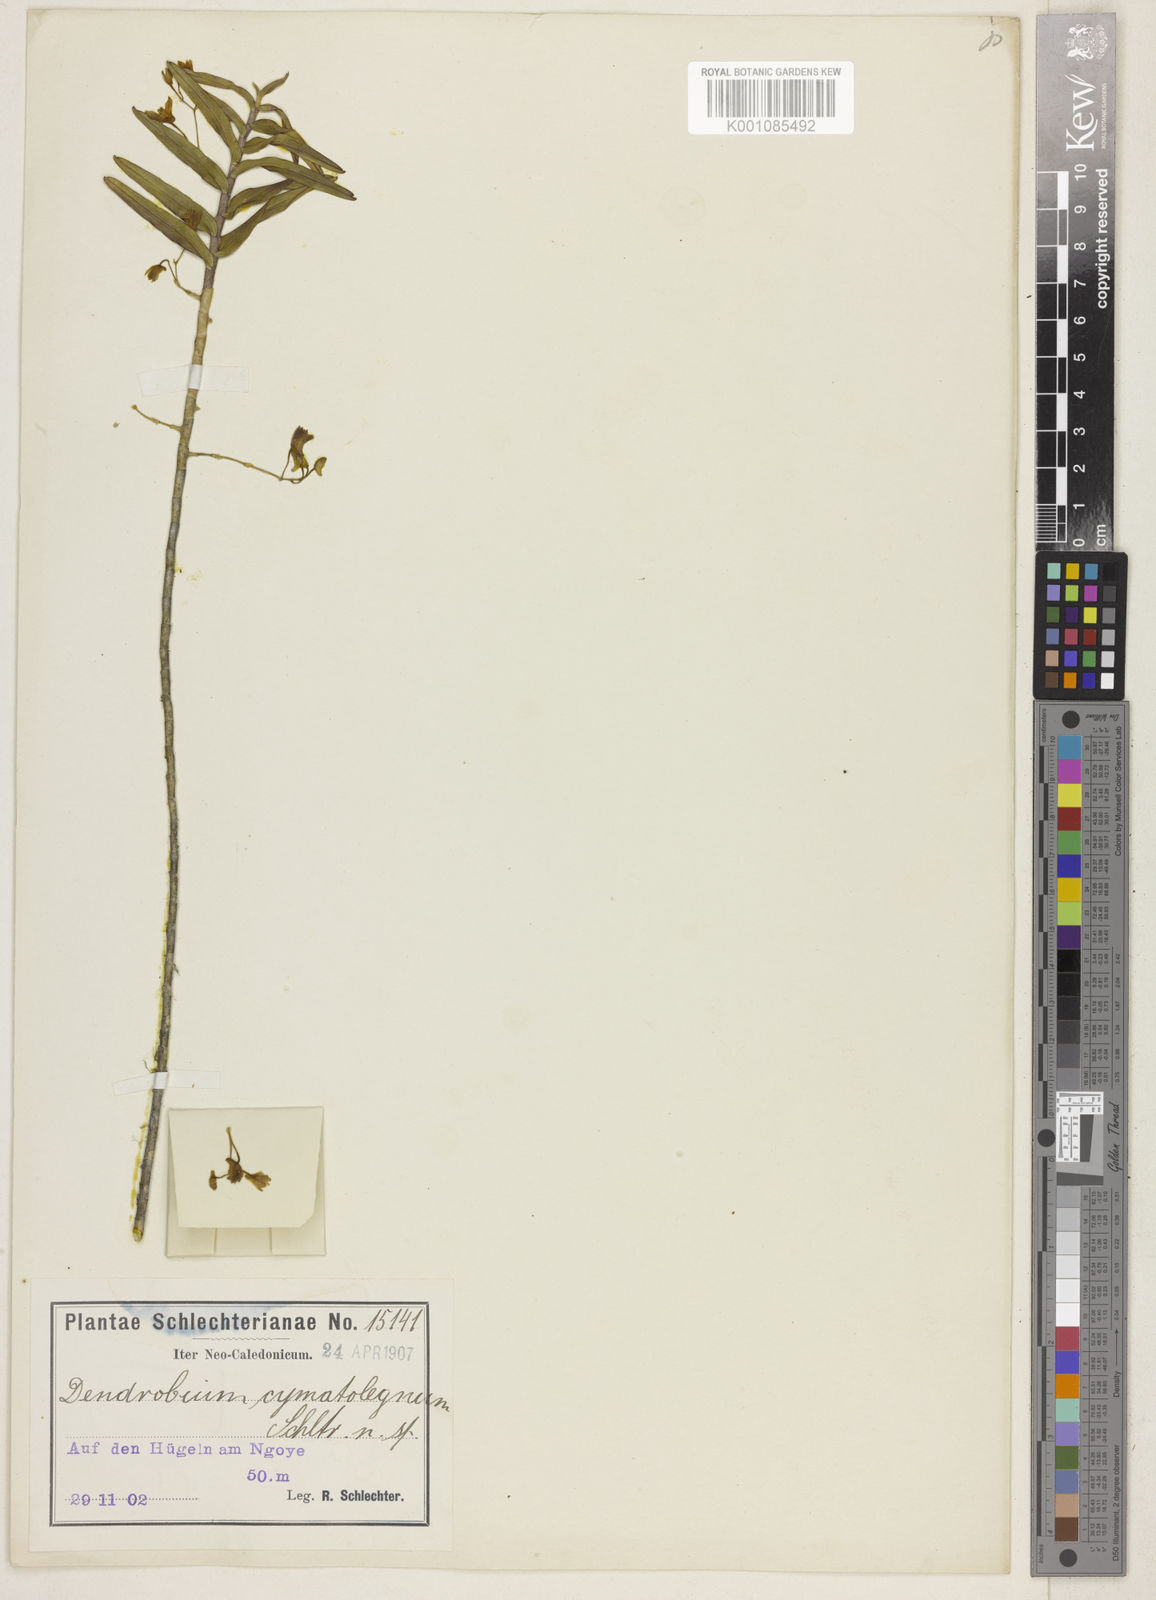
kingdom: Plantae
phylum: Tracheophyta
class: Liliopsida
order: Asparagales
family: Orchidaceae
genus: Dendrobium
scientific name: Dendrobium cymatoleguum
